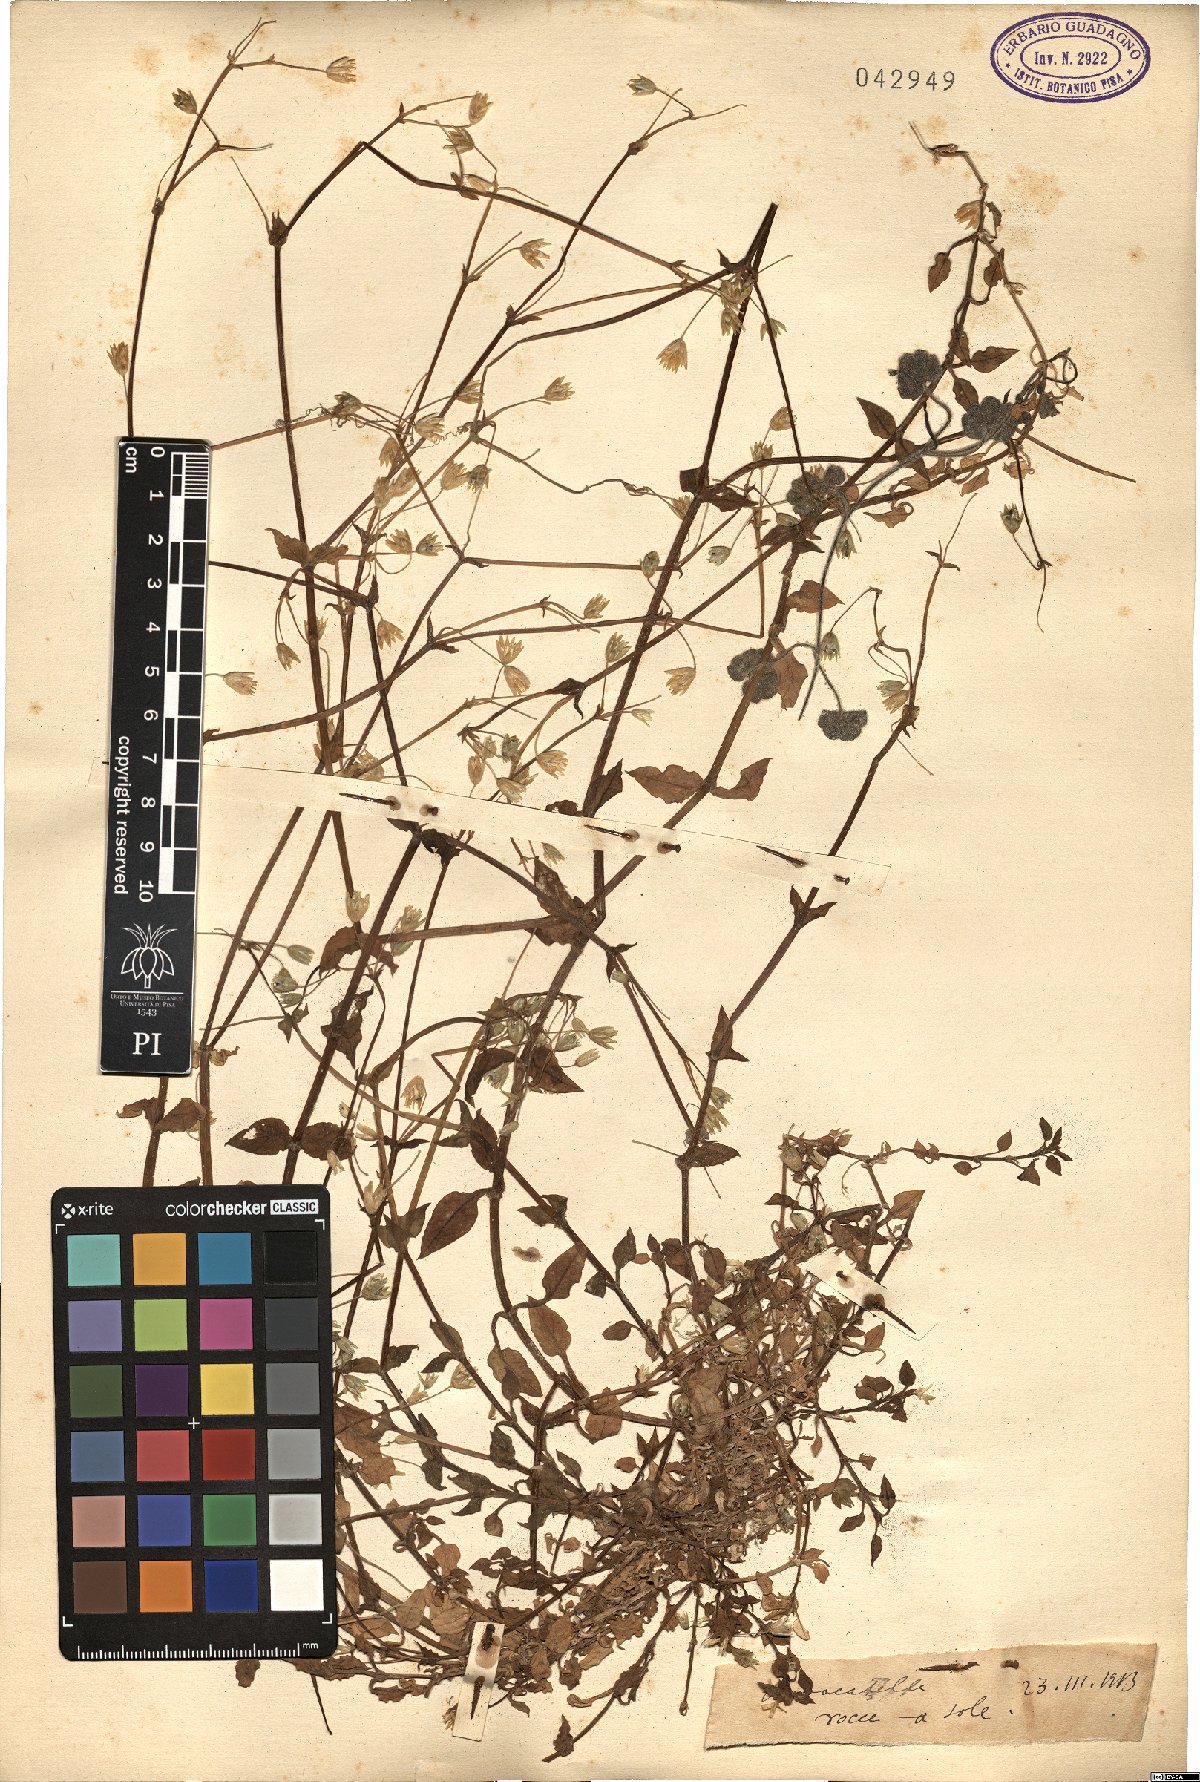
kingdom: Plantae
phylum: Tracheophyta
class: Magnoliopsida
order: Caryophyllales
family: Caryophyllaceae
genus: Stellaria
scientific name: Stellaria
